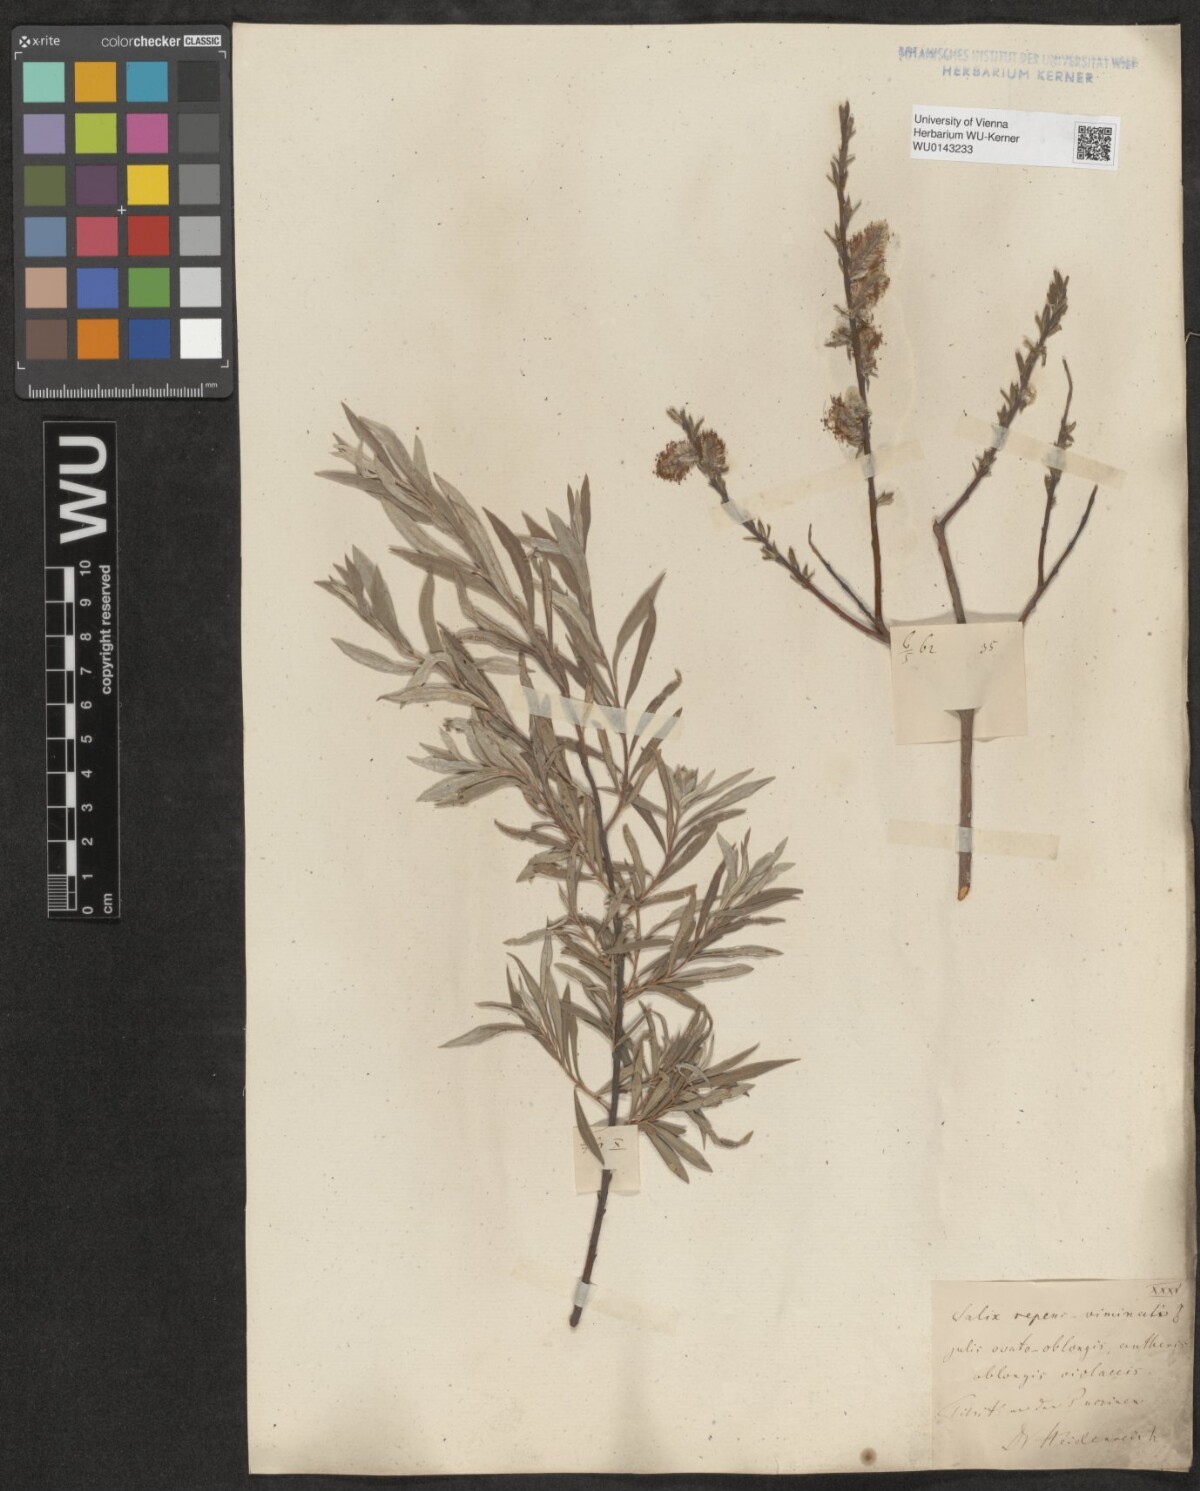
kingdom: Plantae
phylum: Tracheophyta
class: Magnoliopsida
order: Malpighiales
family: Salicaceae
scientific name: Salicaceae
